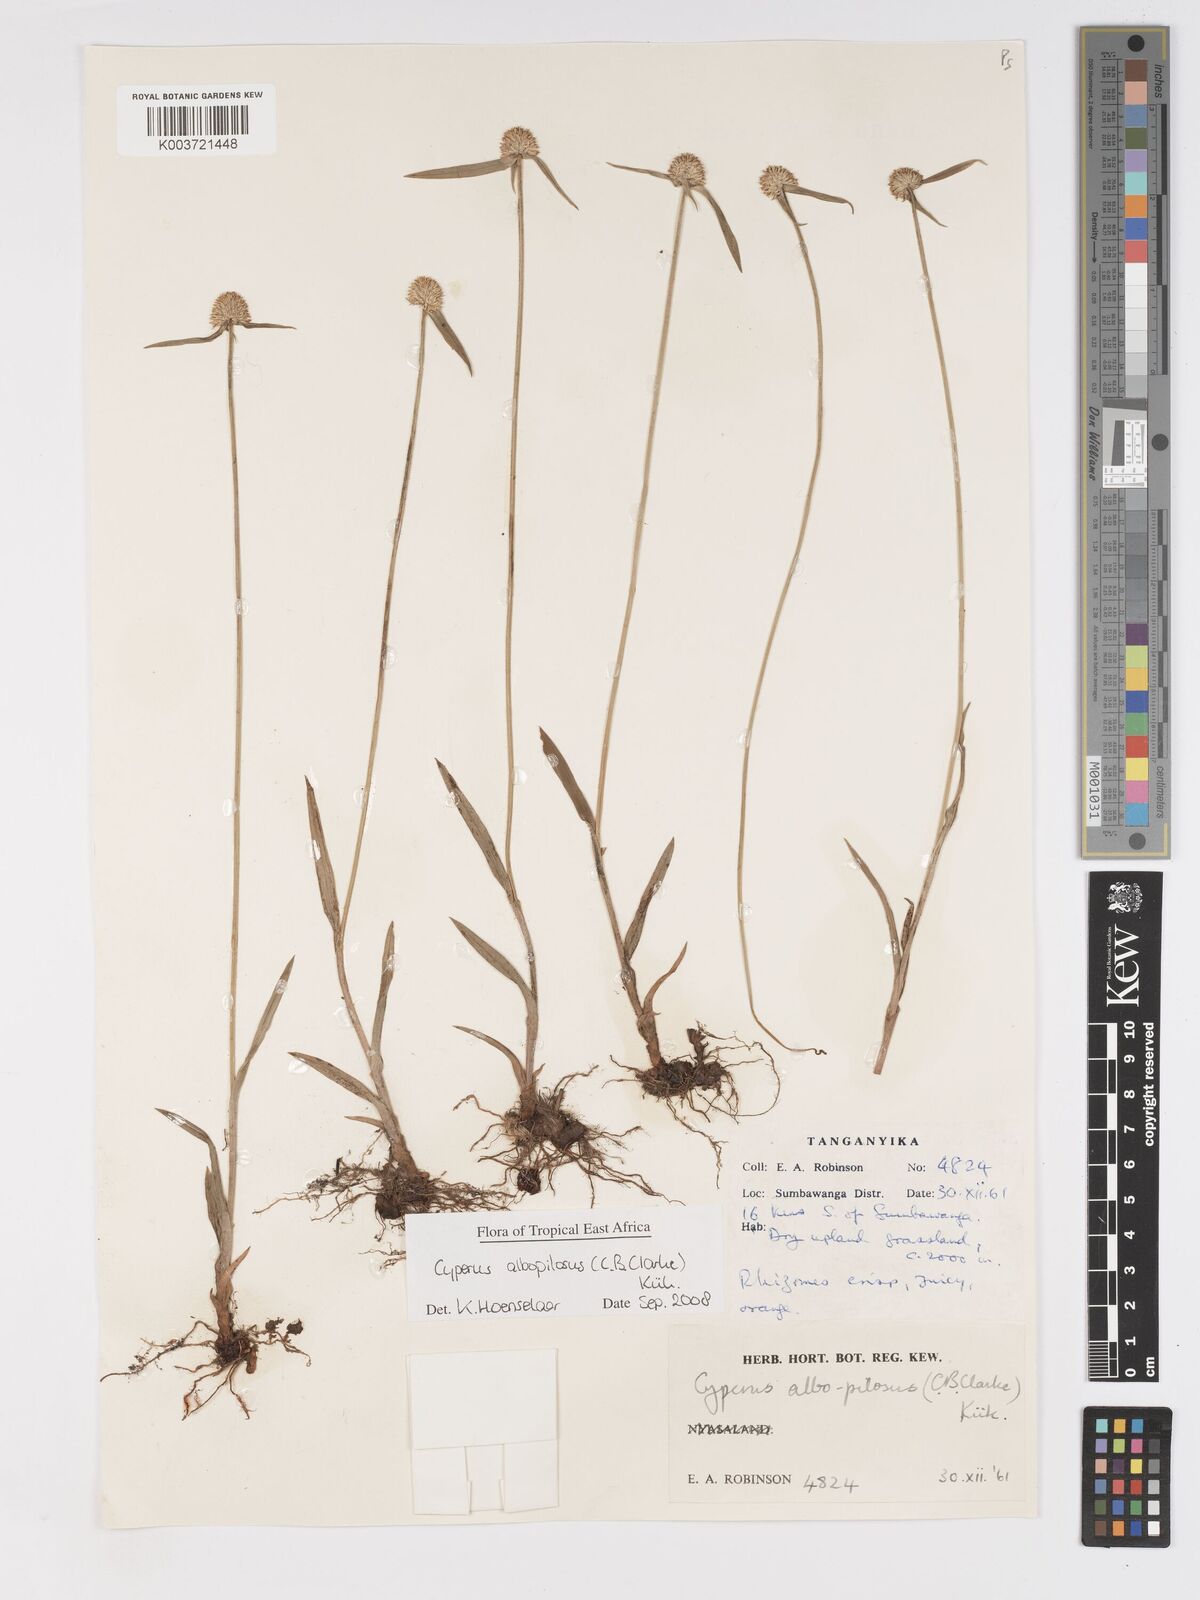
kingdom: Plantae
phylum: Tracheophyta
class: Liliopsida
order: Poales
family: Cyperaceae
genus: Cyperus
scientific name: Cyperus albopilosus
